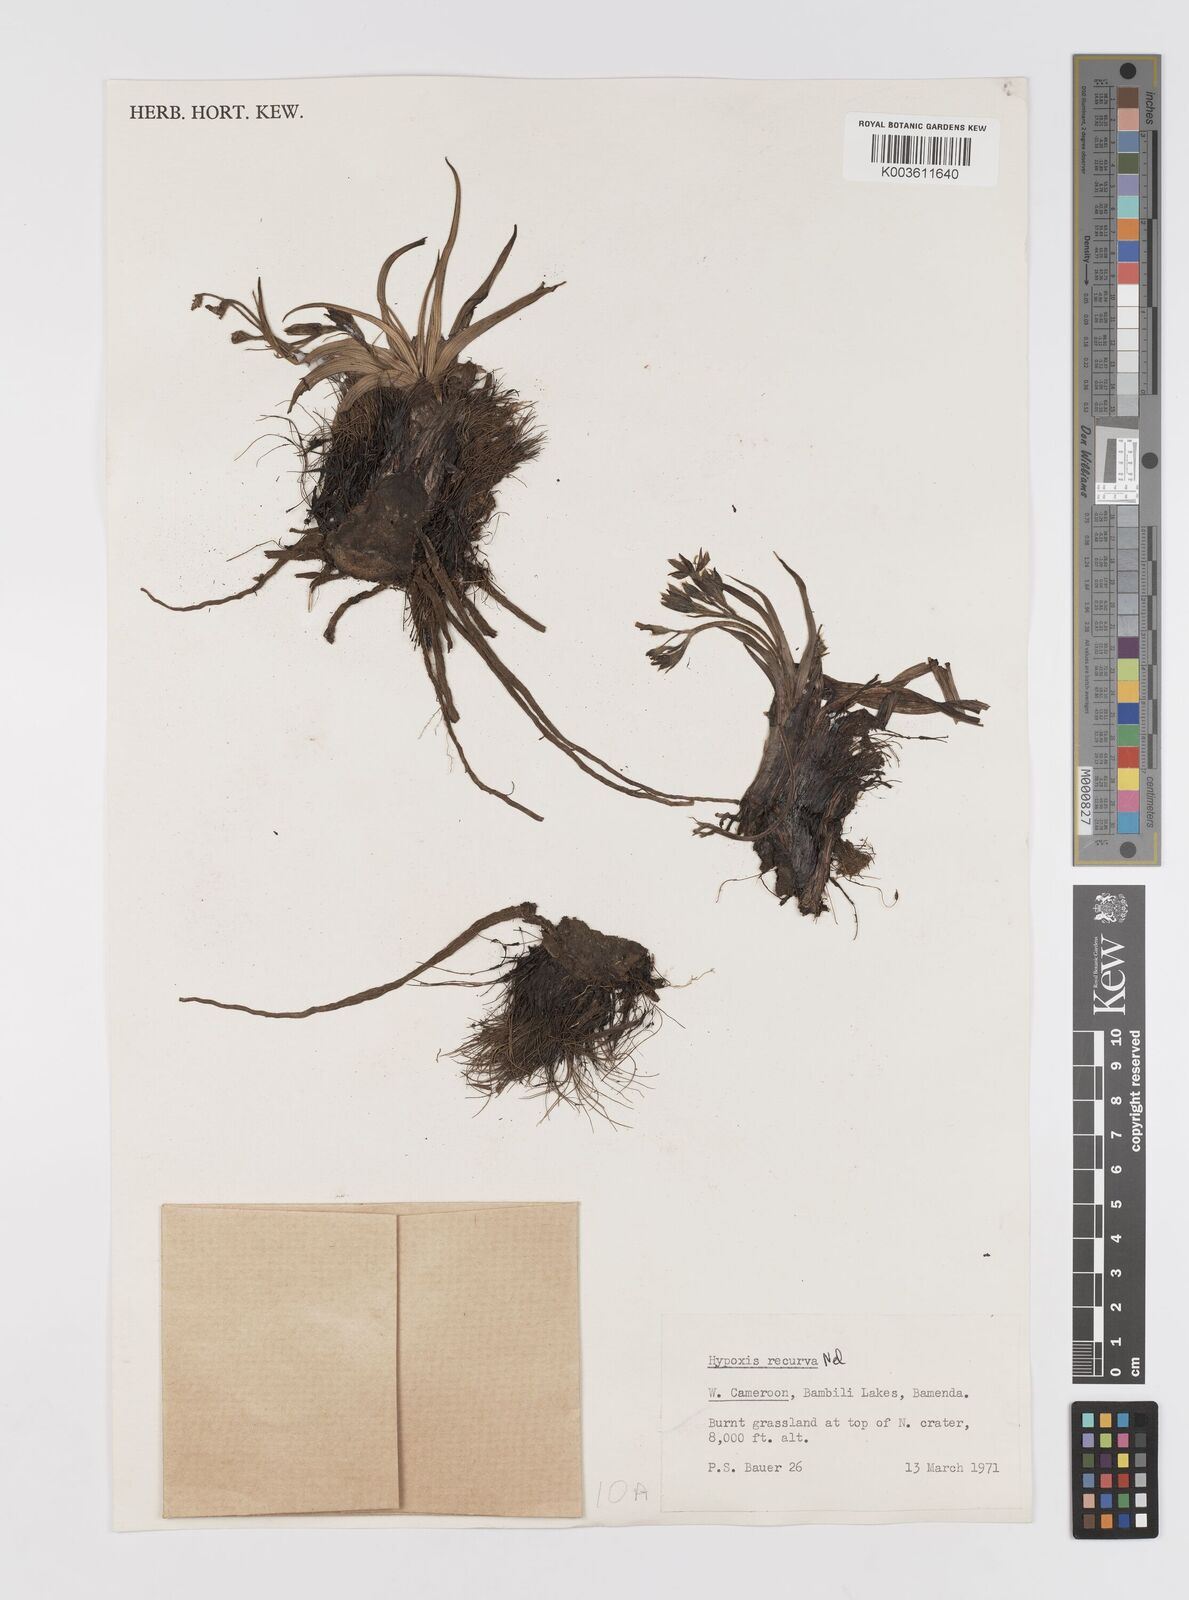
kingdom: Plantae
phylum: Tracheophyta
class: Liliopsida
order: Asparagales
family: Hypoxidaceae
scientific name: Hypoxidaceae
